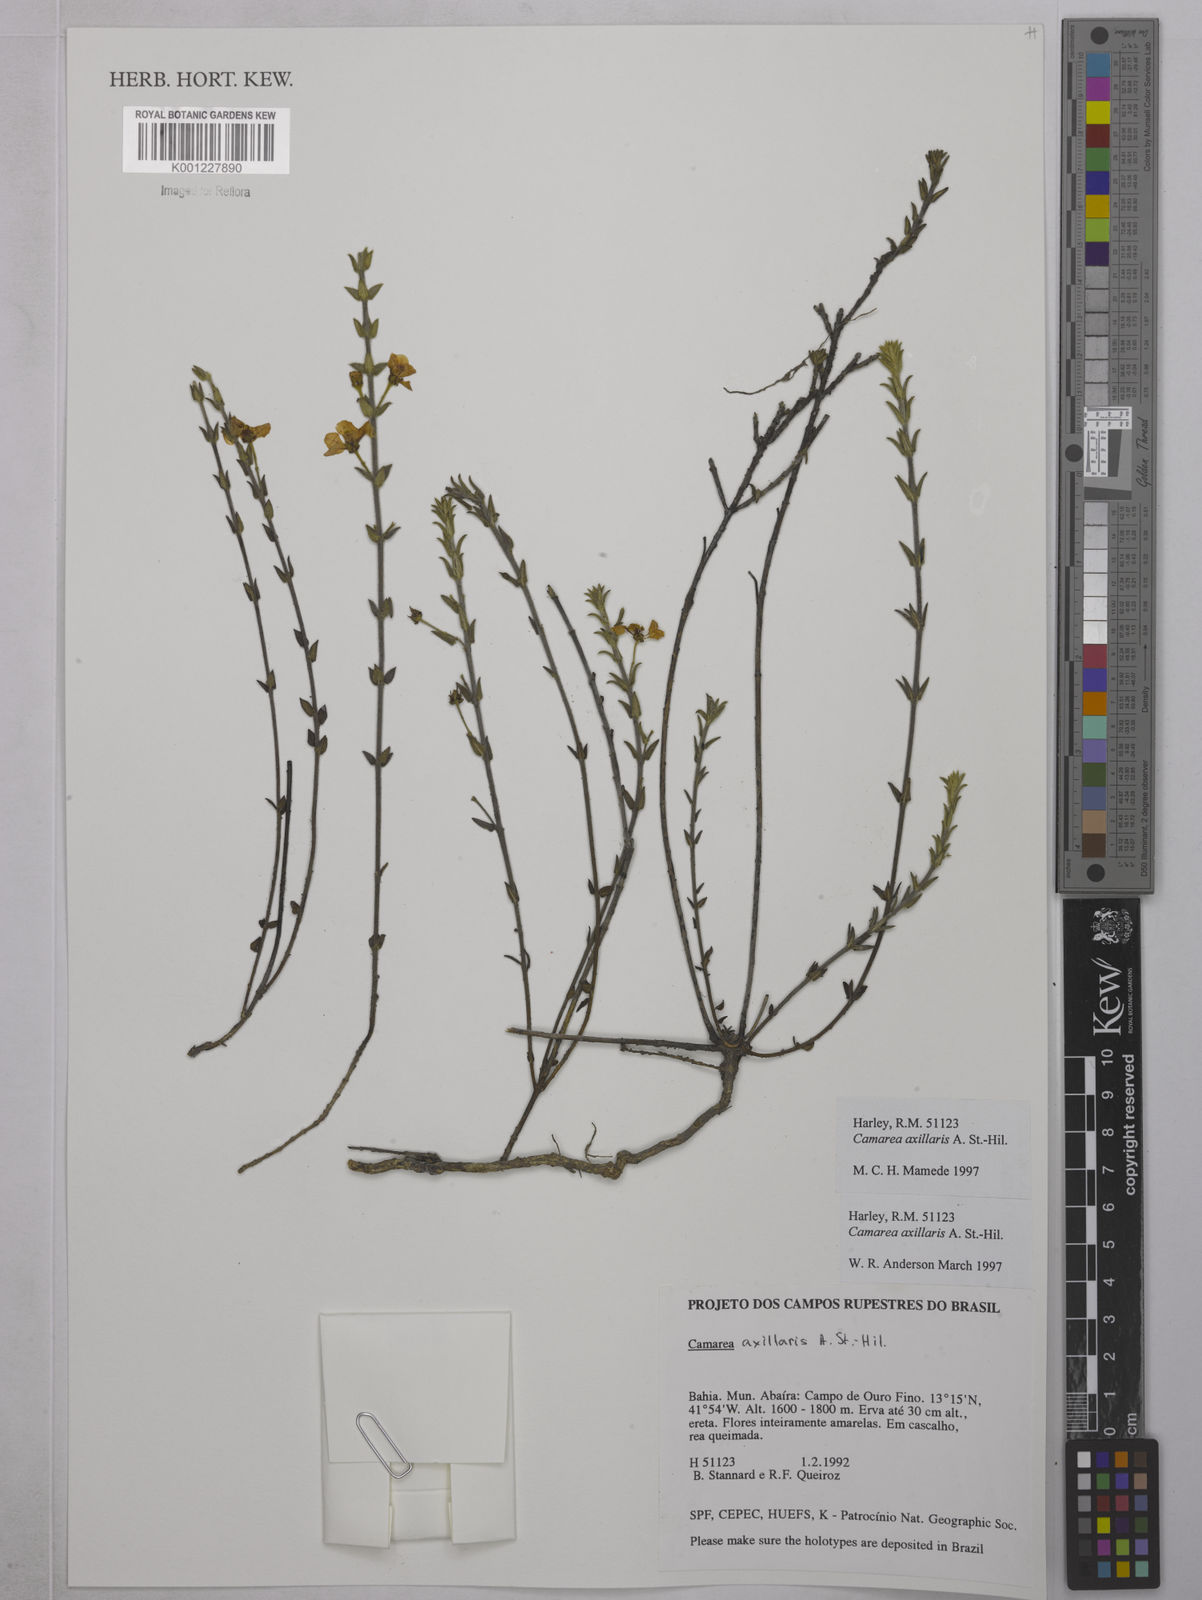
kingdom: Plantae
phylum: Tracheophyta
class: Magnoliopsida
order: Malpighiales
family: Malpighiaceae
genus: Camarea
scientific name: Camarea axillaris
